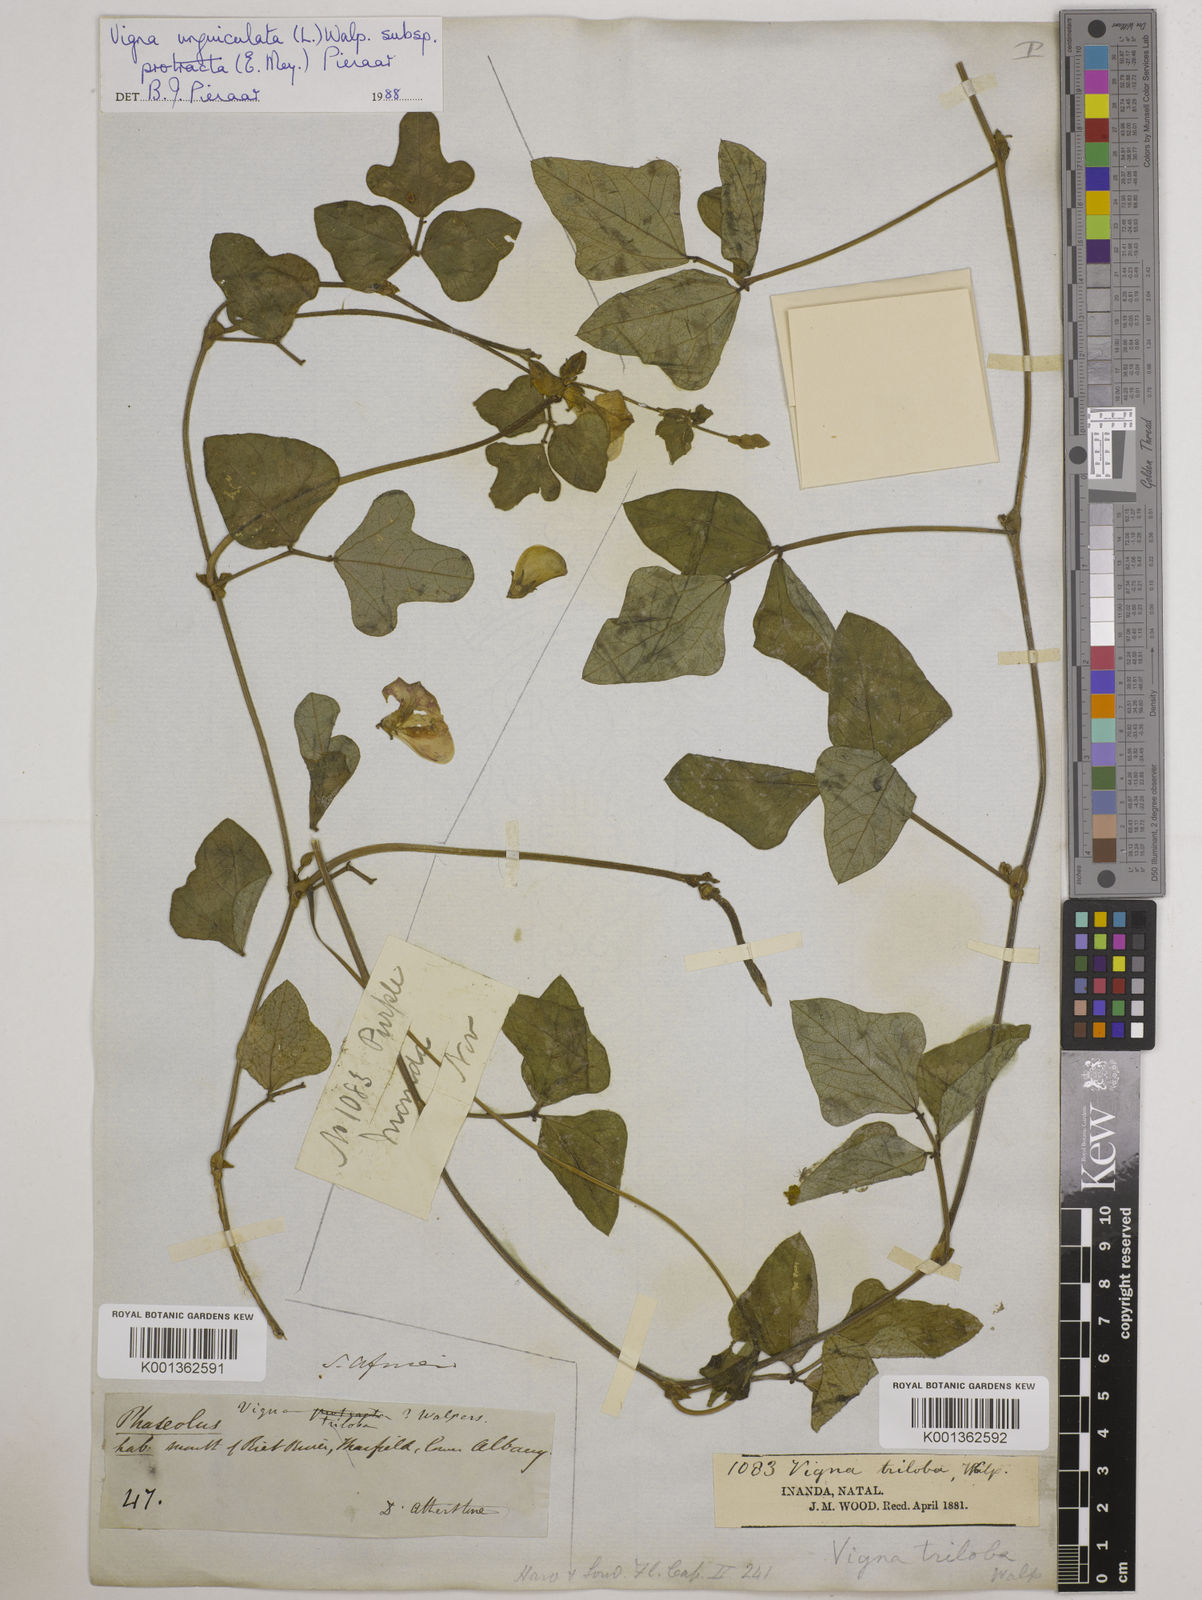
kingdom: Plantae
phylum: Tracheophyta
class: Magnoliopsida
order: Fabales
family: Fabaceae
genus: Vigna
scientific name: Vigna unguiculata
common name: Cowpea
